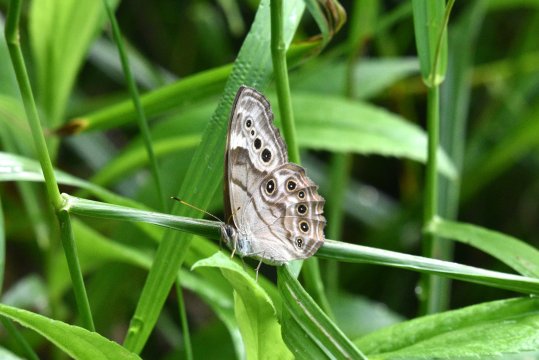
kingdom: Animalia
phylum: Arthropoda
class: Insecta
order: Lepidoptera
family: Nymphalidae
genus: Lethe
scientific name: Lethe anthedon
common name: Northern Pearly-Eye
